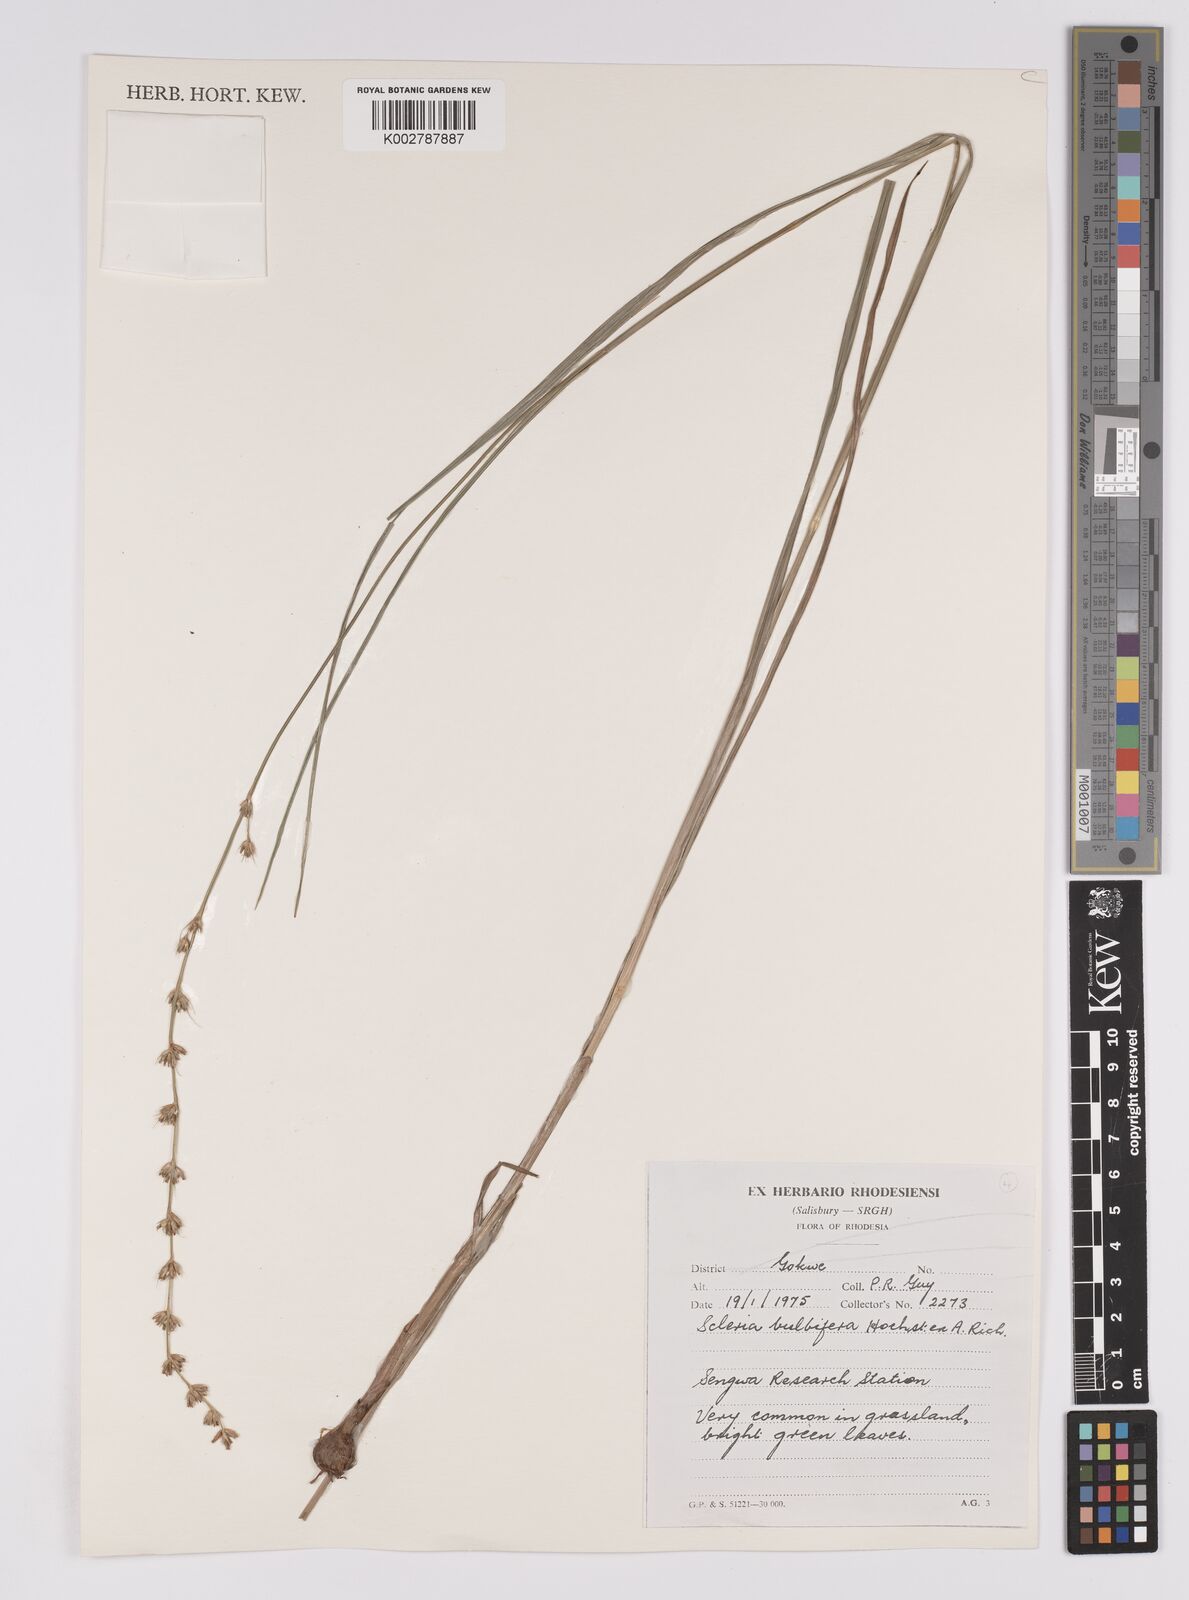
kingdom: Plantae
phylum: Tracheophyta
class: Liliopsida
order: Poales
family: Cyperaceae
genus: Scleria
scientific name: Scleria bulbifera
